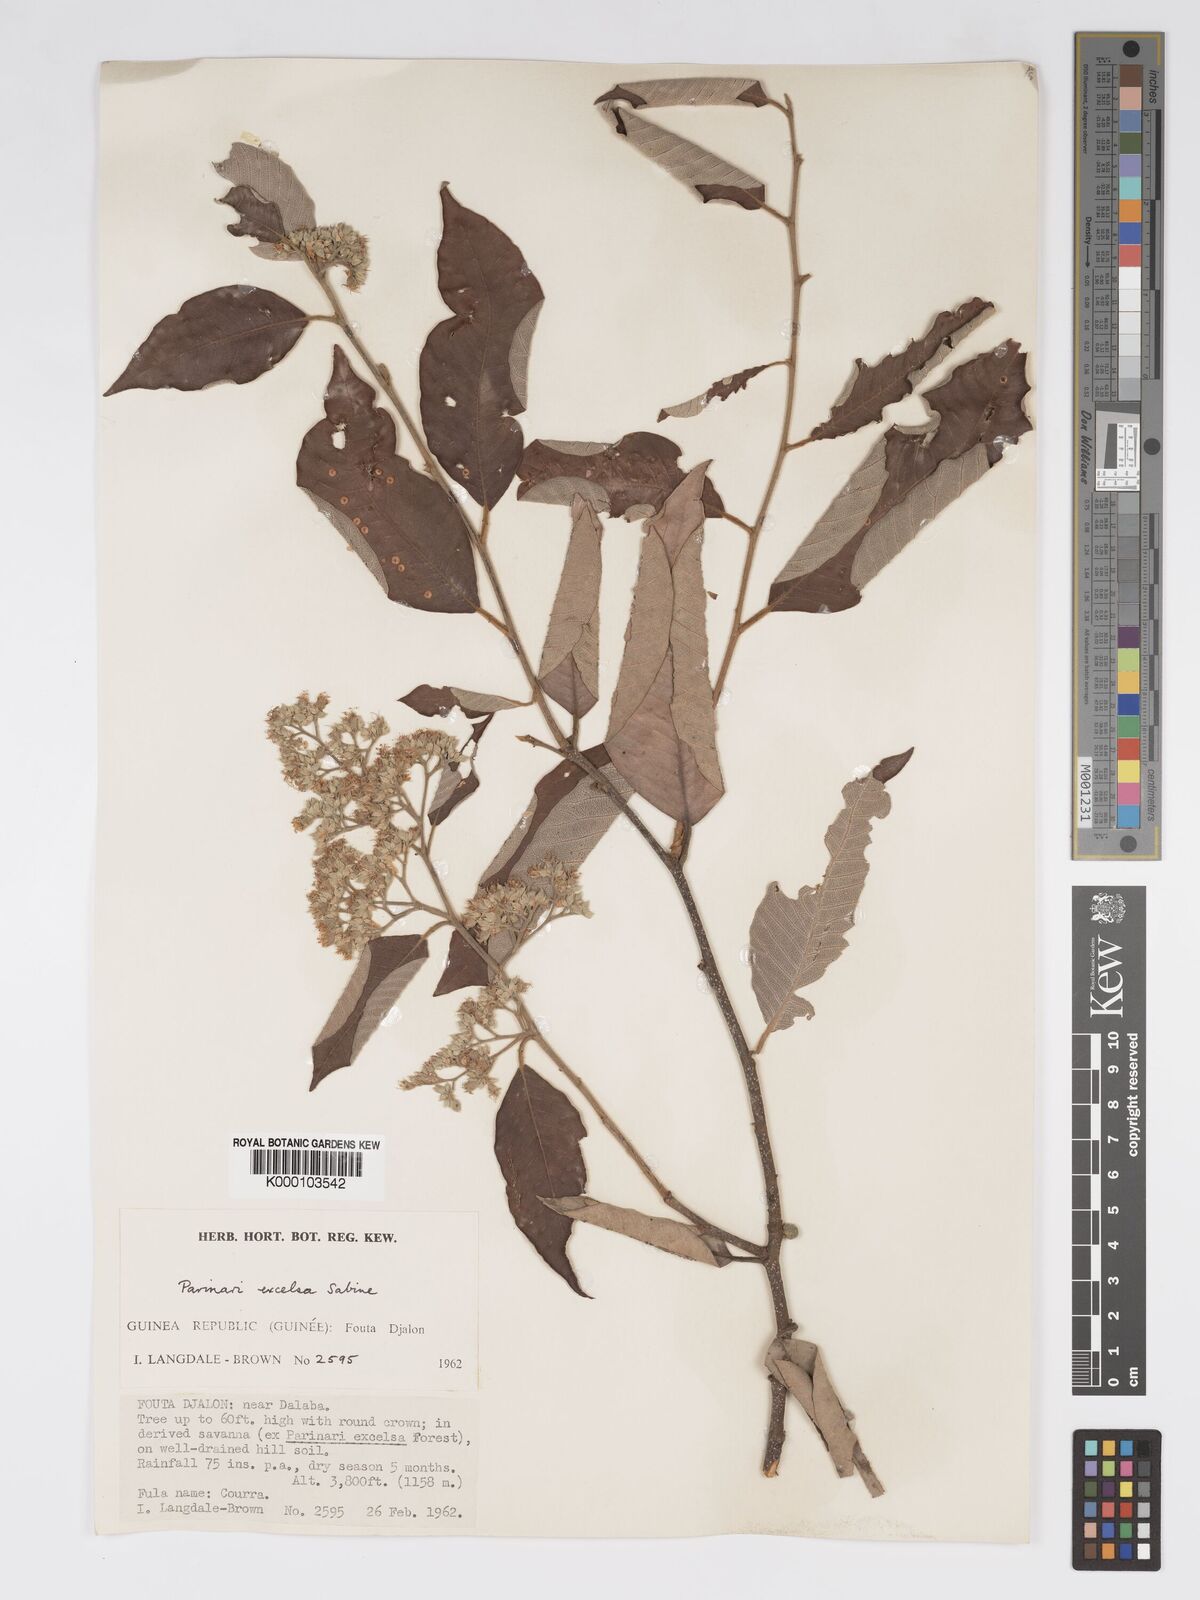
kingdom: Plantae
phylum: Tracheophyta
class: Magnoliopsida
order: Malpighiales
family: Chrysobalanaceae
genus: Parinari
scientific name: Parinari excelsa
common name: Guinea-plum
